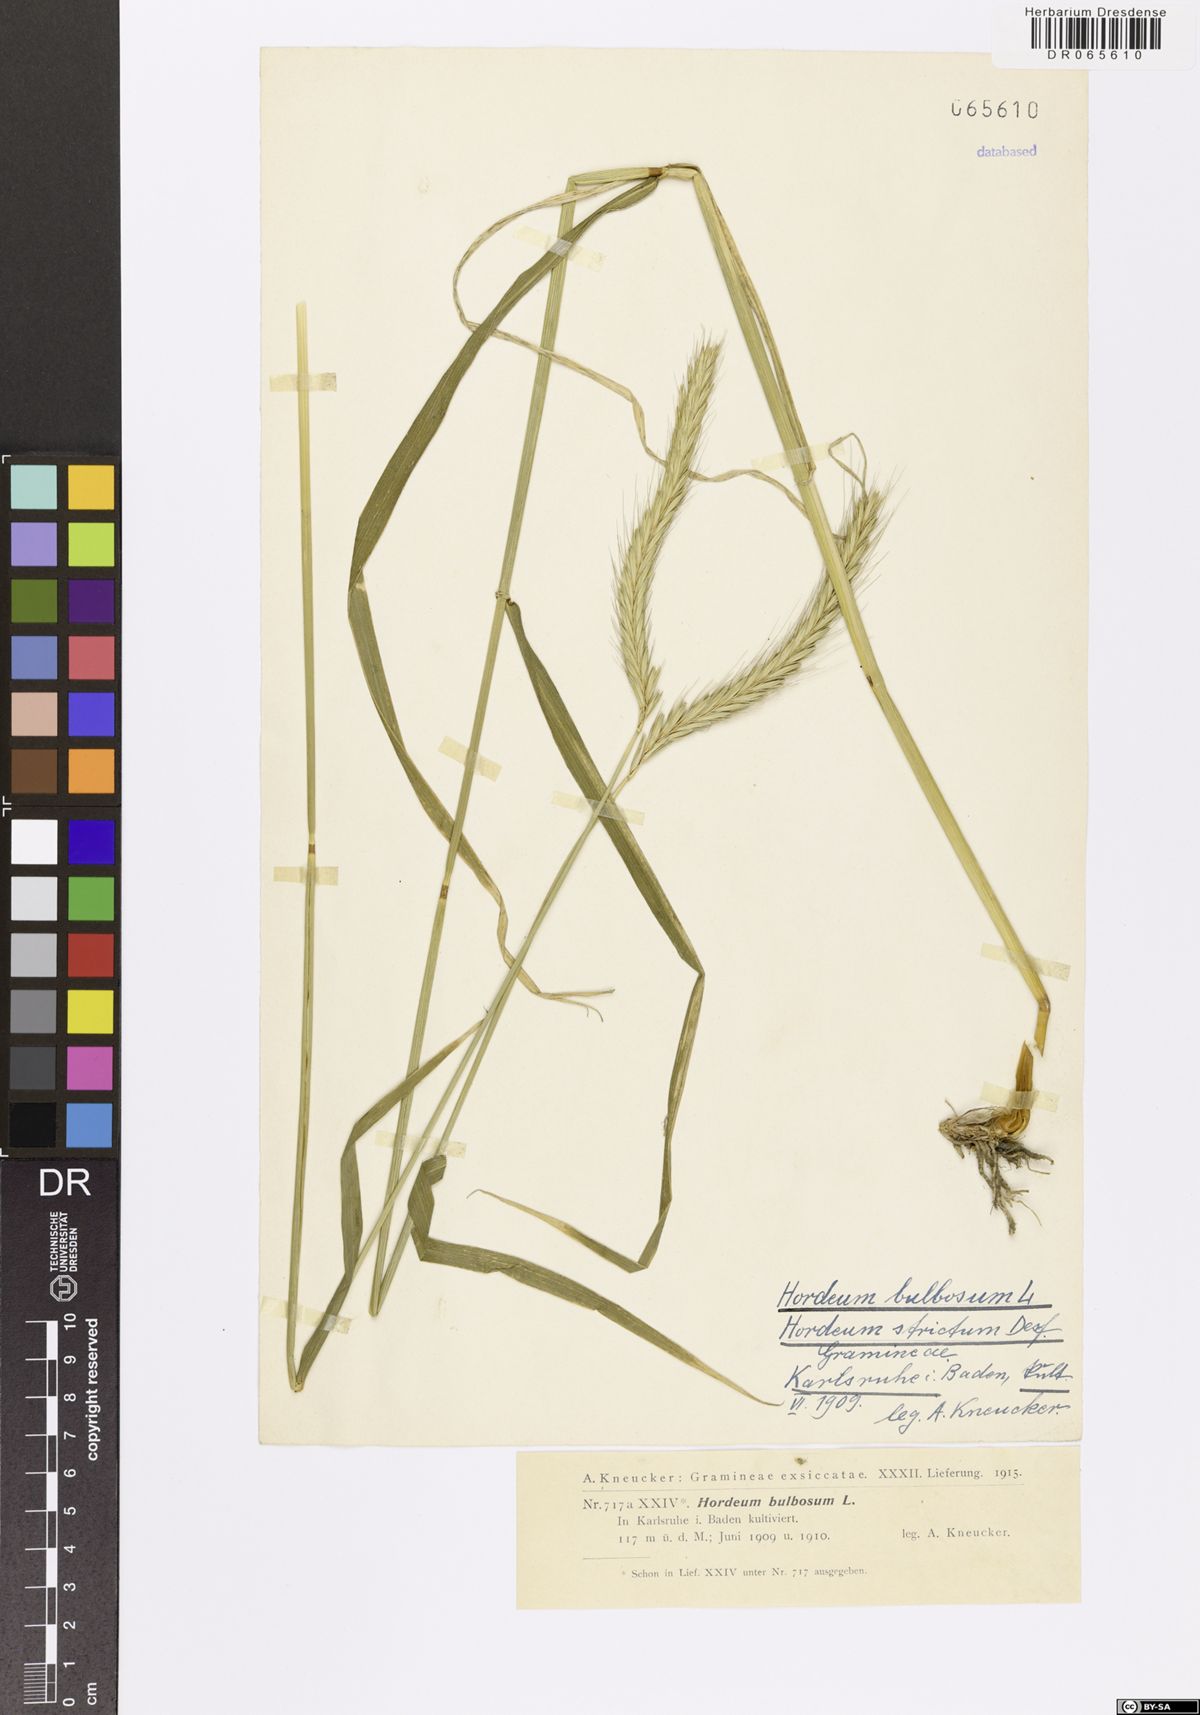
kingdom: Plantae
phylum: Tracheophyta
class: Liliopsida
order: Poales
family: Poaceae
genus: Hordeum
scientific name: Hordeum bulbosum
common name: Bulbous barley
